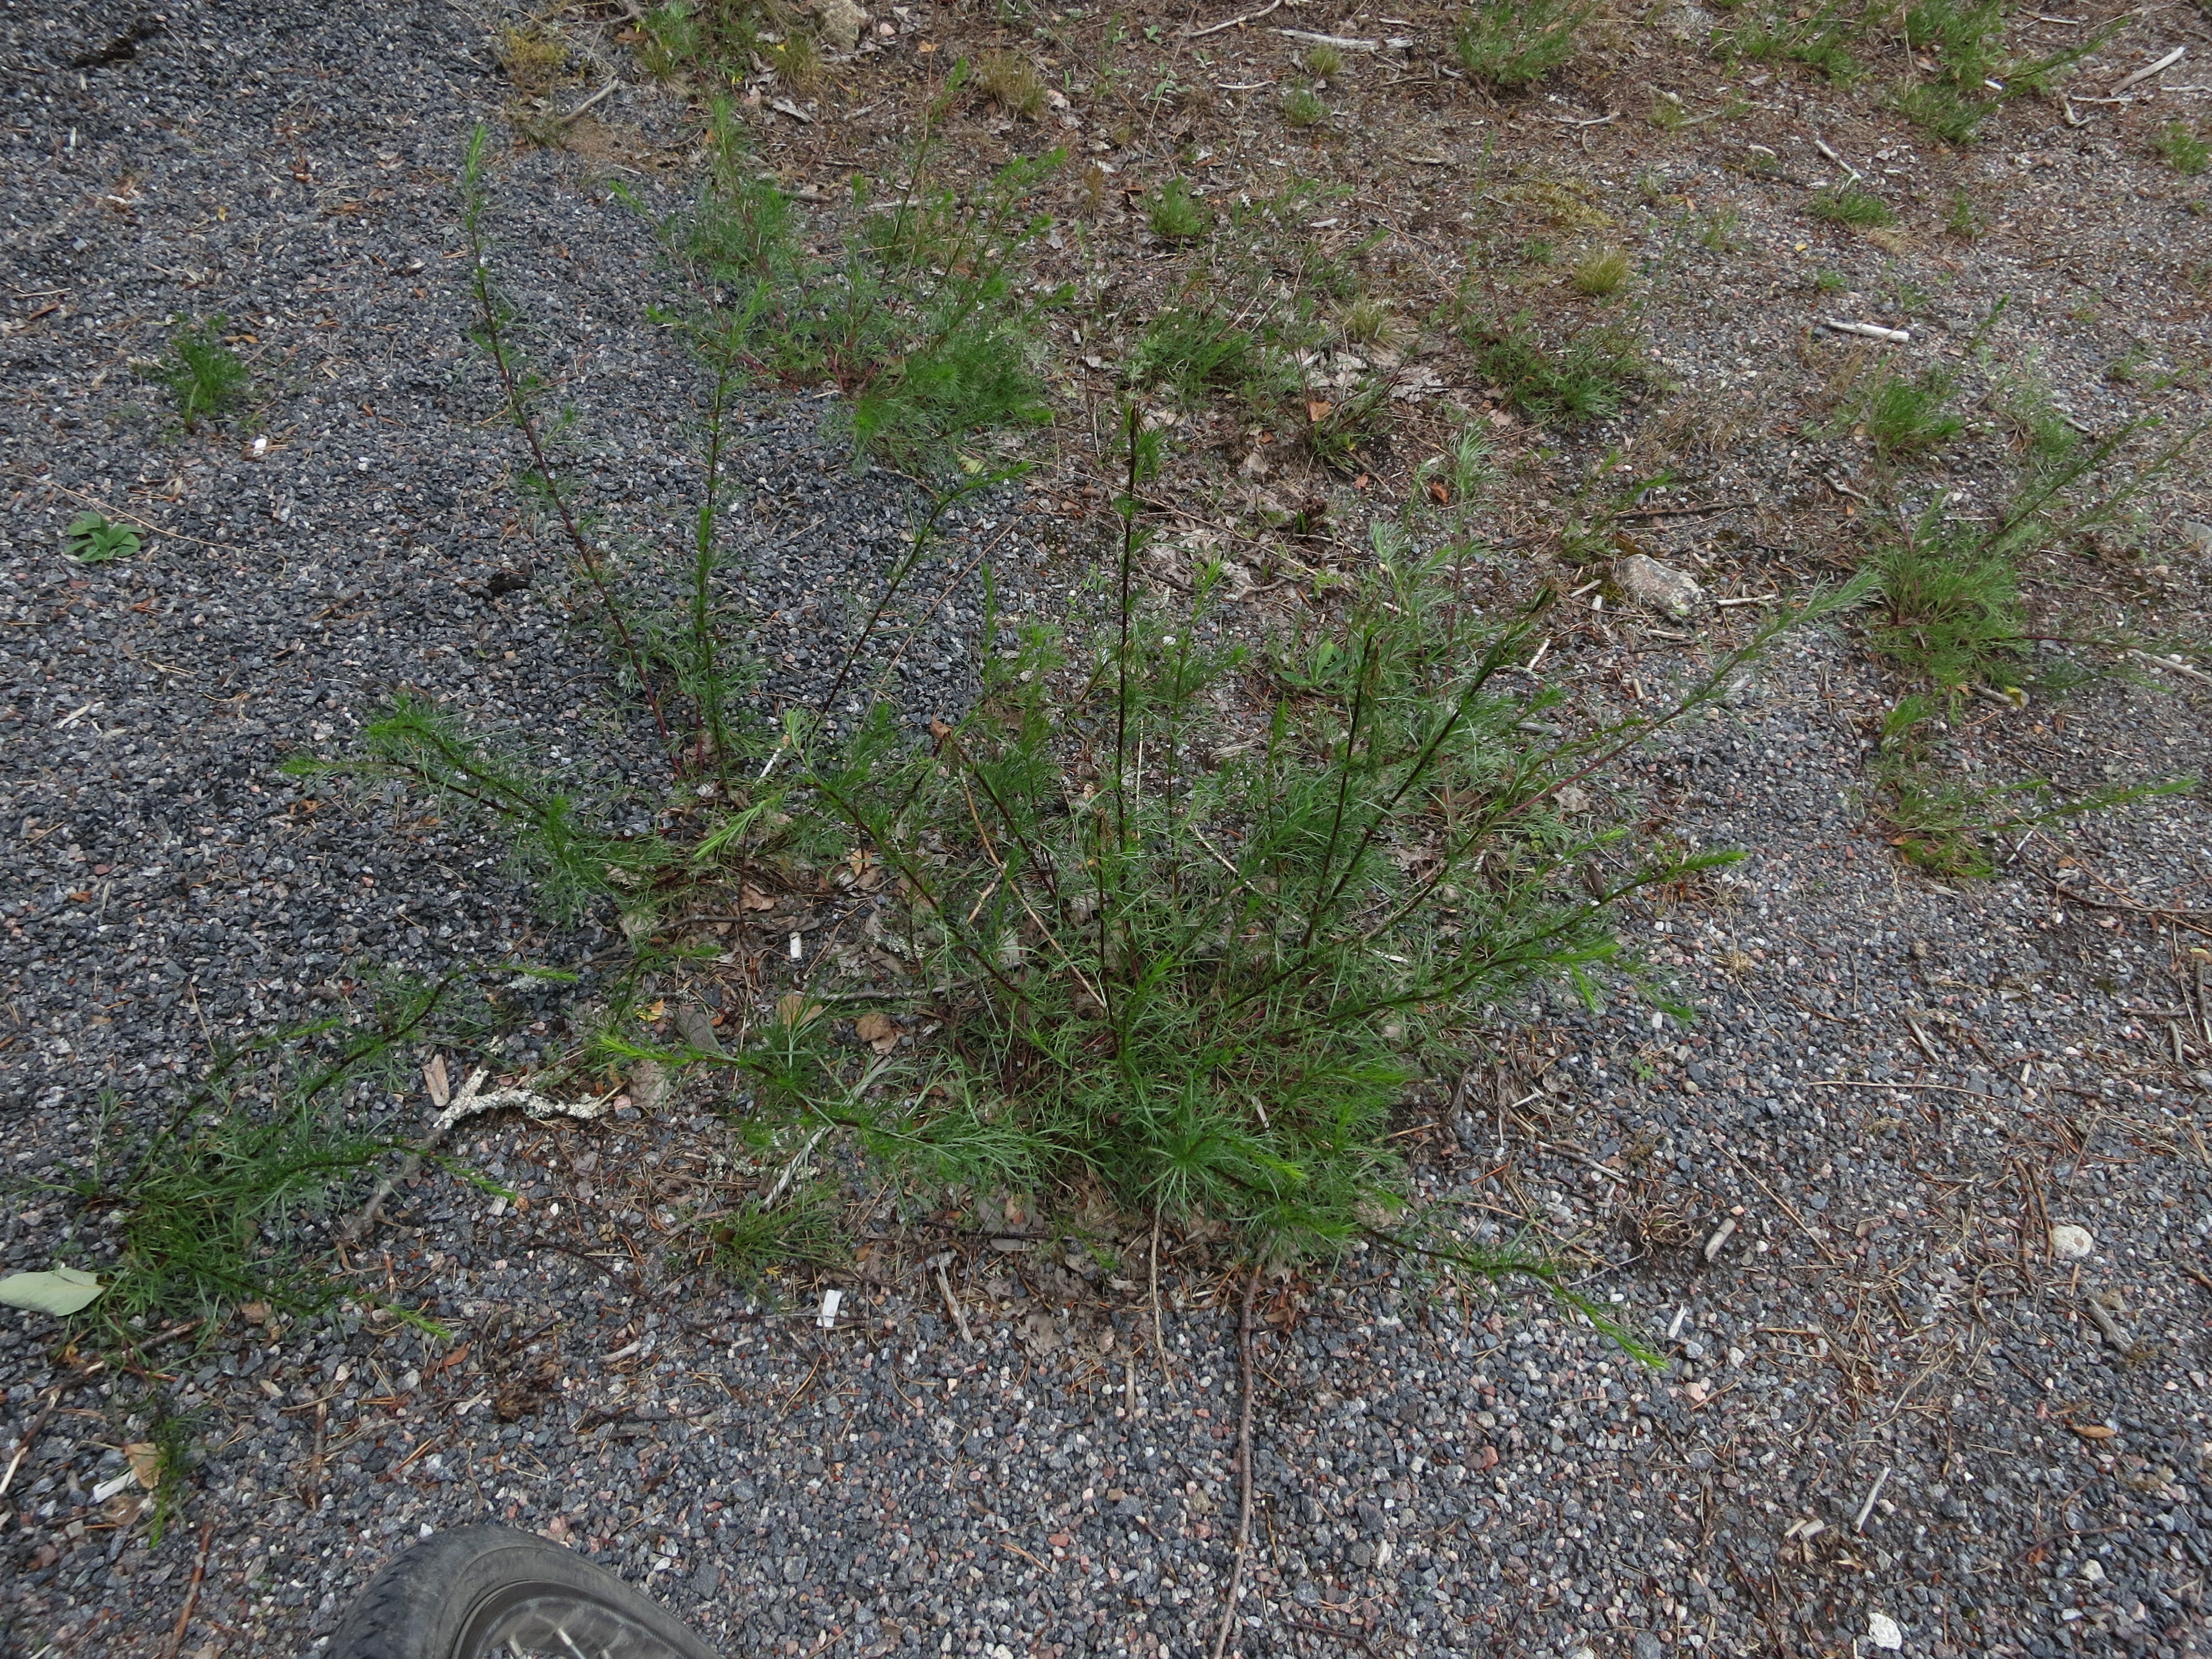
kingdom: Plantae
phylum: Tracheophyta
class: Magnoliopsida
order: Asterales
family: Asteraceae
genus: Artemisia
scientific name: Artemisia campestris
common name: Field wormwood
